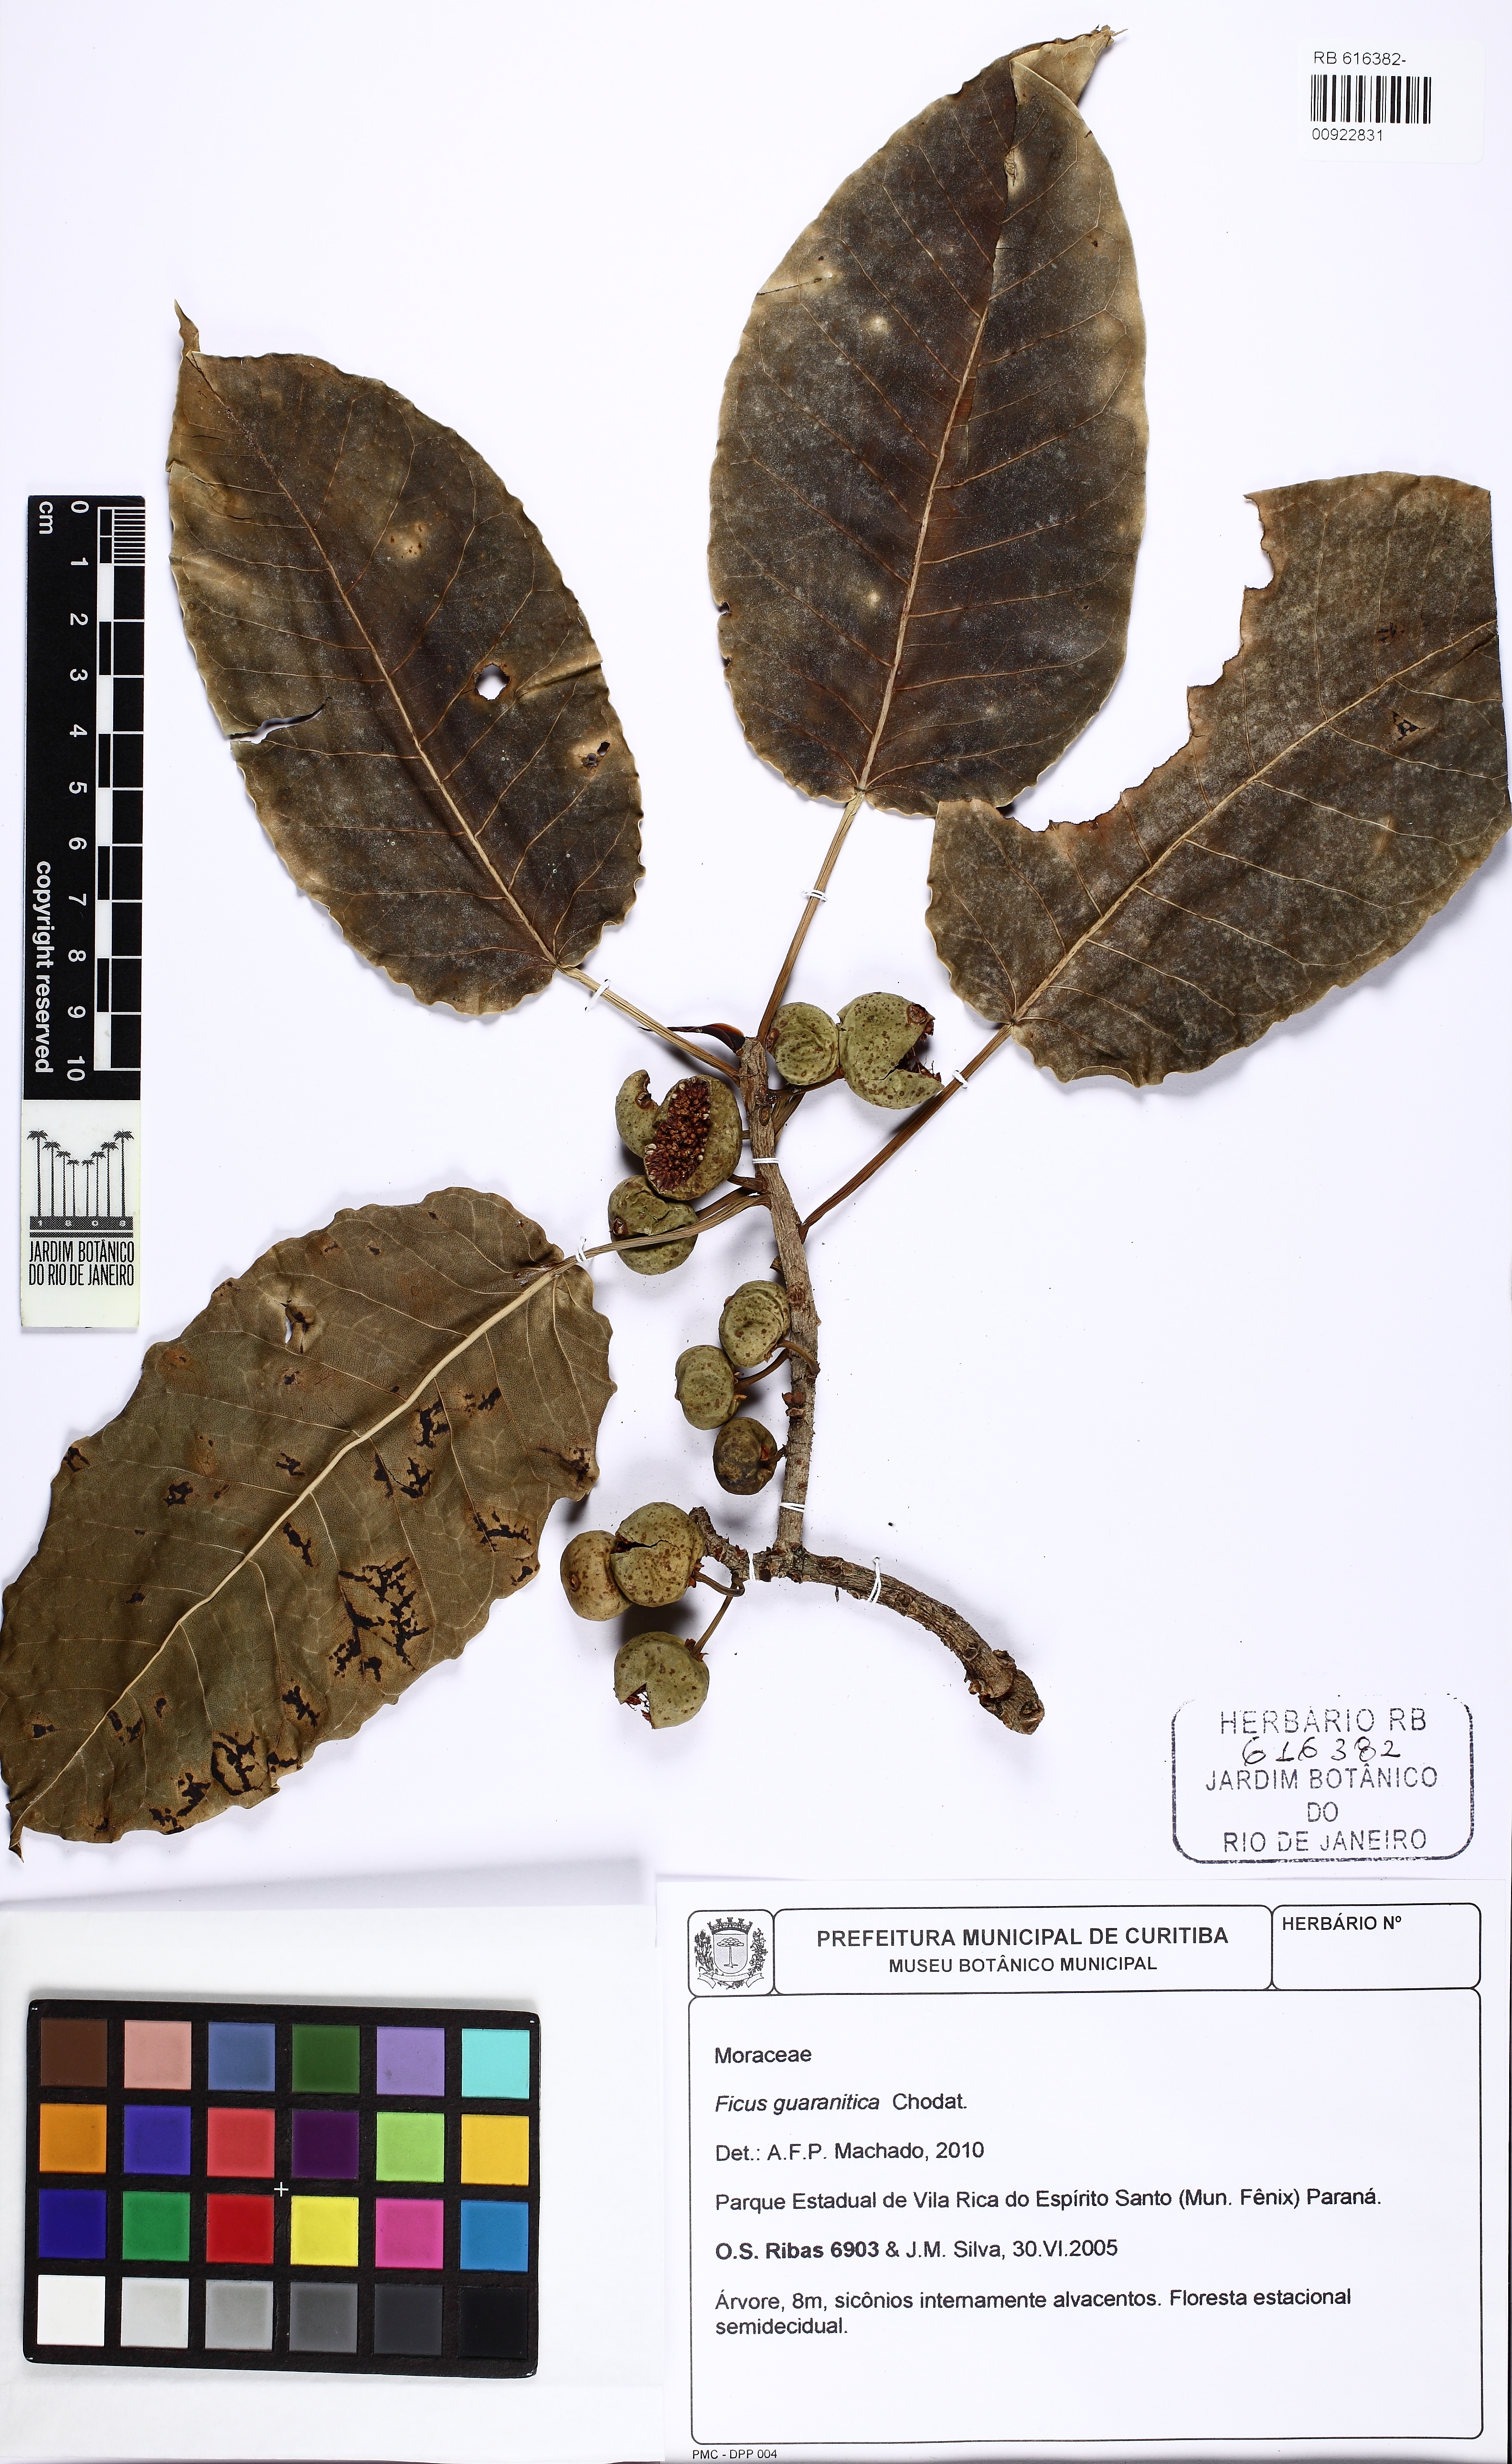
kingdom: Plantae
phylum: Tracheophyta
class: Magnoliopsida
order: Rosales
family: Moraceae
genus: Ficus
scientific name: Ficus guaranitica
